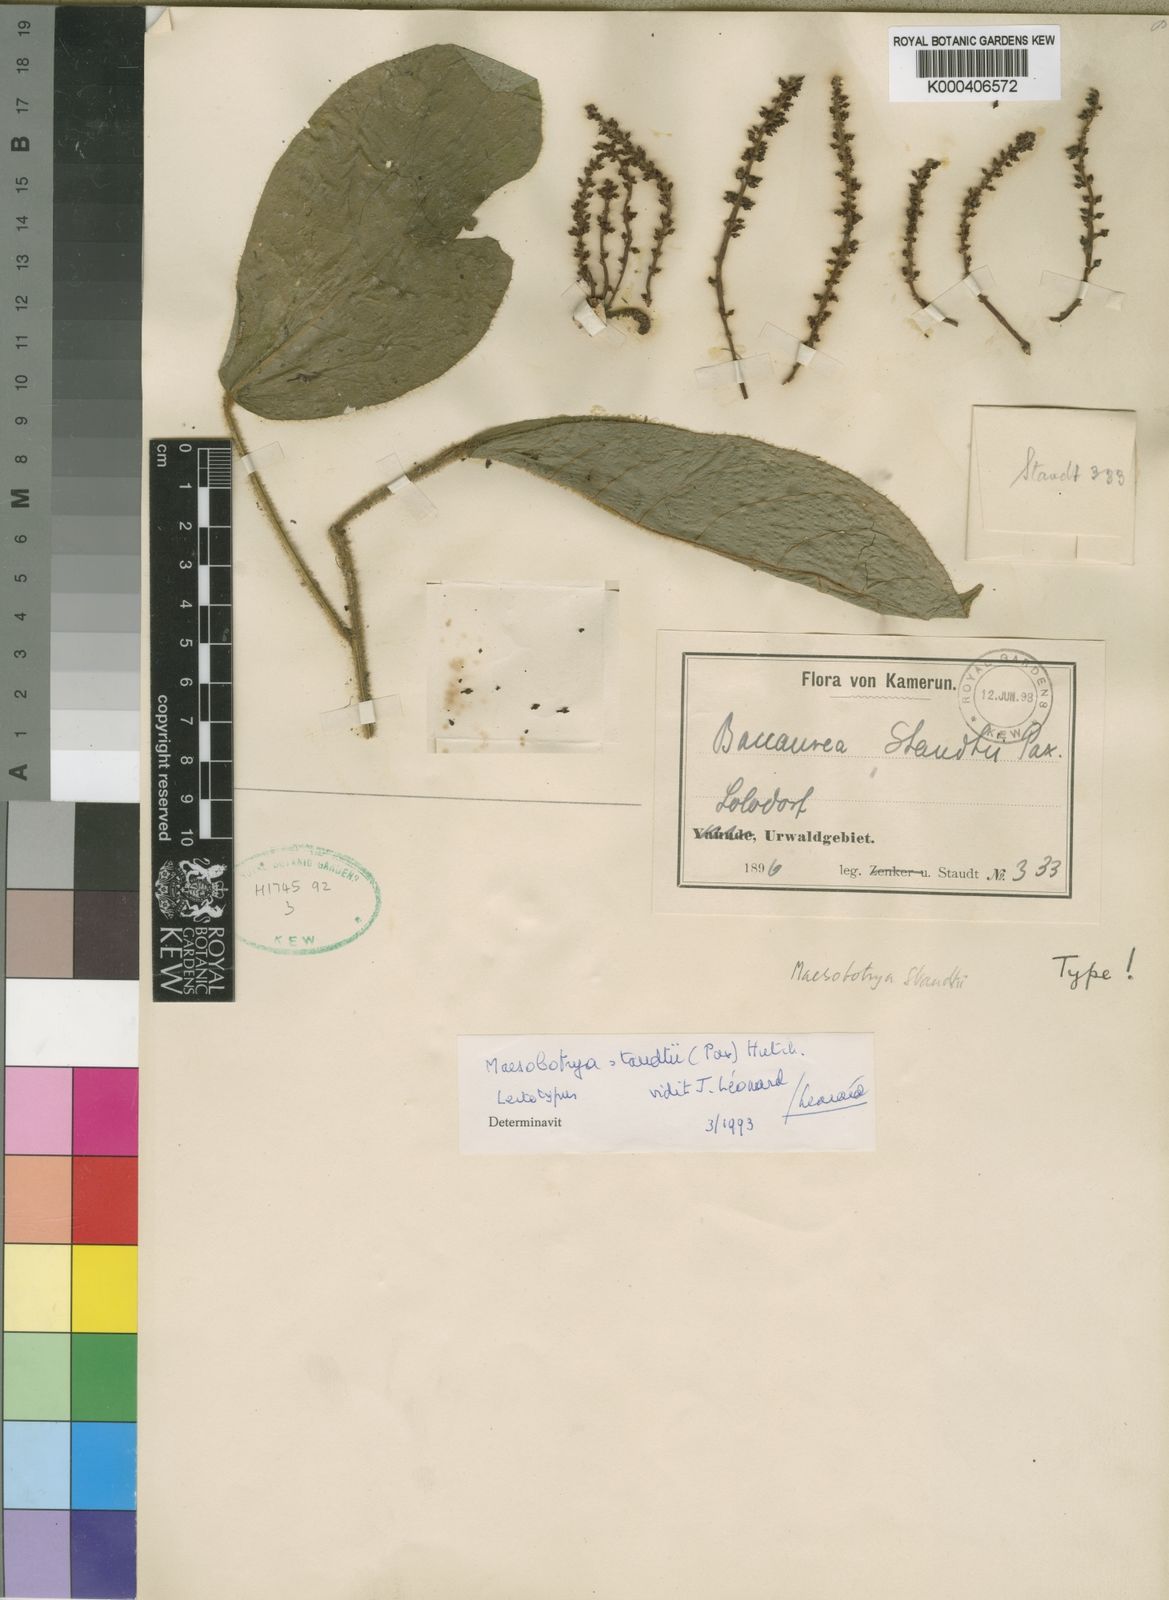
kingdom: Plantae
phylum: Tracheophyta
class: Magnoliopsida
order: Malpighiales
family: Phyllanthaceae
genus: Maesobotrya
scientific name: Maesobotrya staudtii
